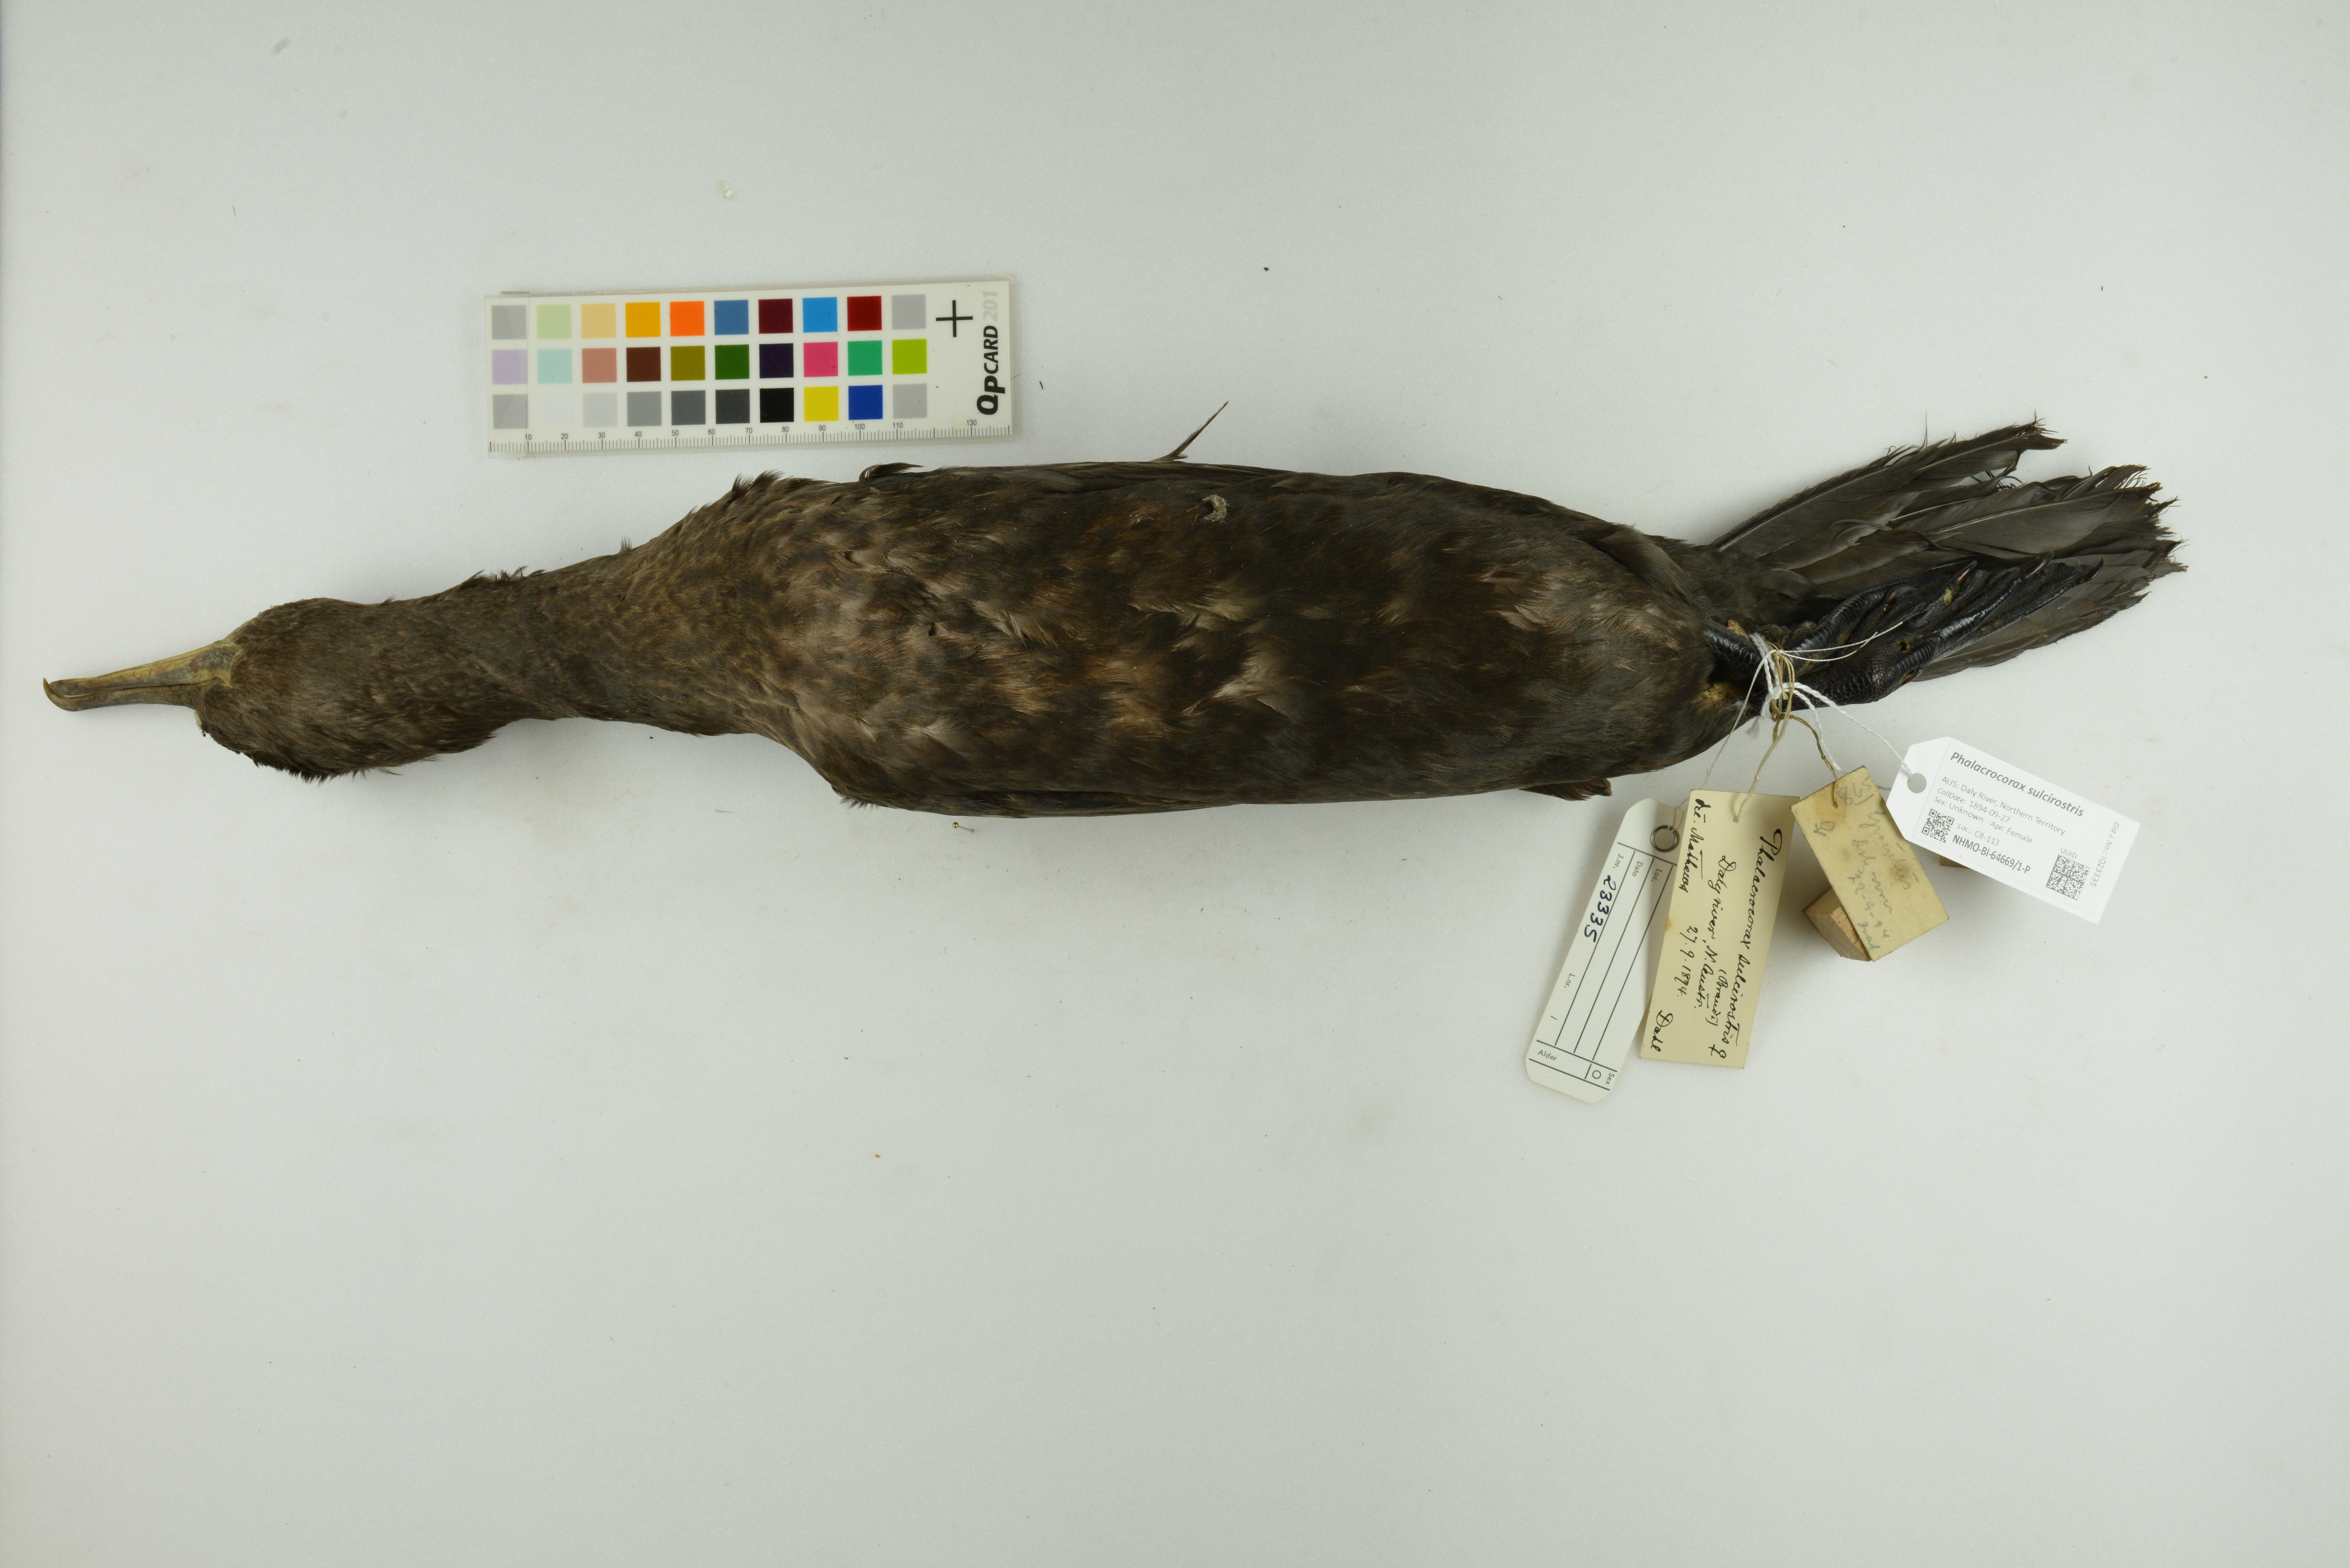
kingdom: Animalia
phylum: Chordata
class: Aves
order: Suliformes
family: Phalacrocoracidae
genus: Phalacrocorax
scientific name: Phalacrocorax sulcirostris
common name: Little black cormorant
